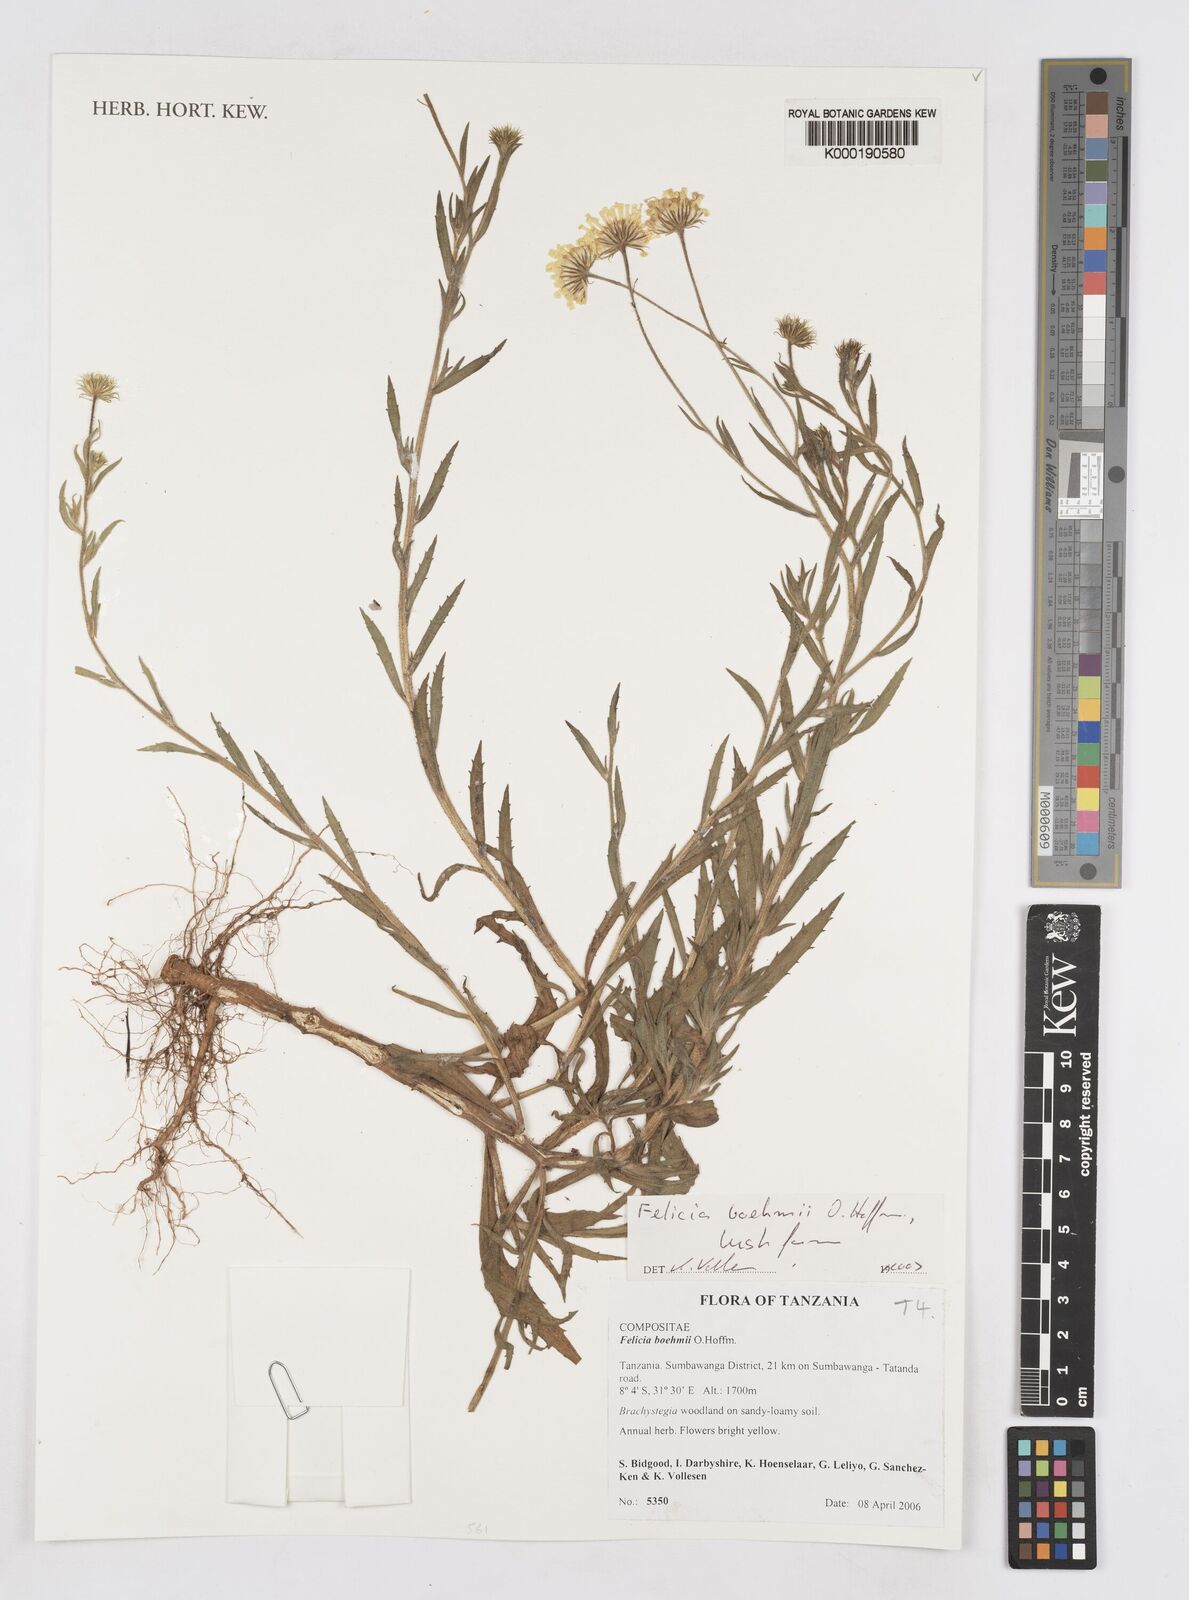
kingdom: Plantae
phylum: Tracheophyta
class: Magnoliopsida
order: Asterales
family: Asteraceae
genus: Felicia
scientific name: Felicia boehmii
